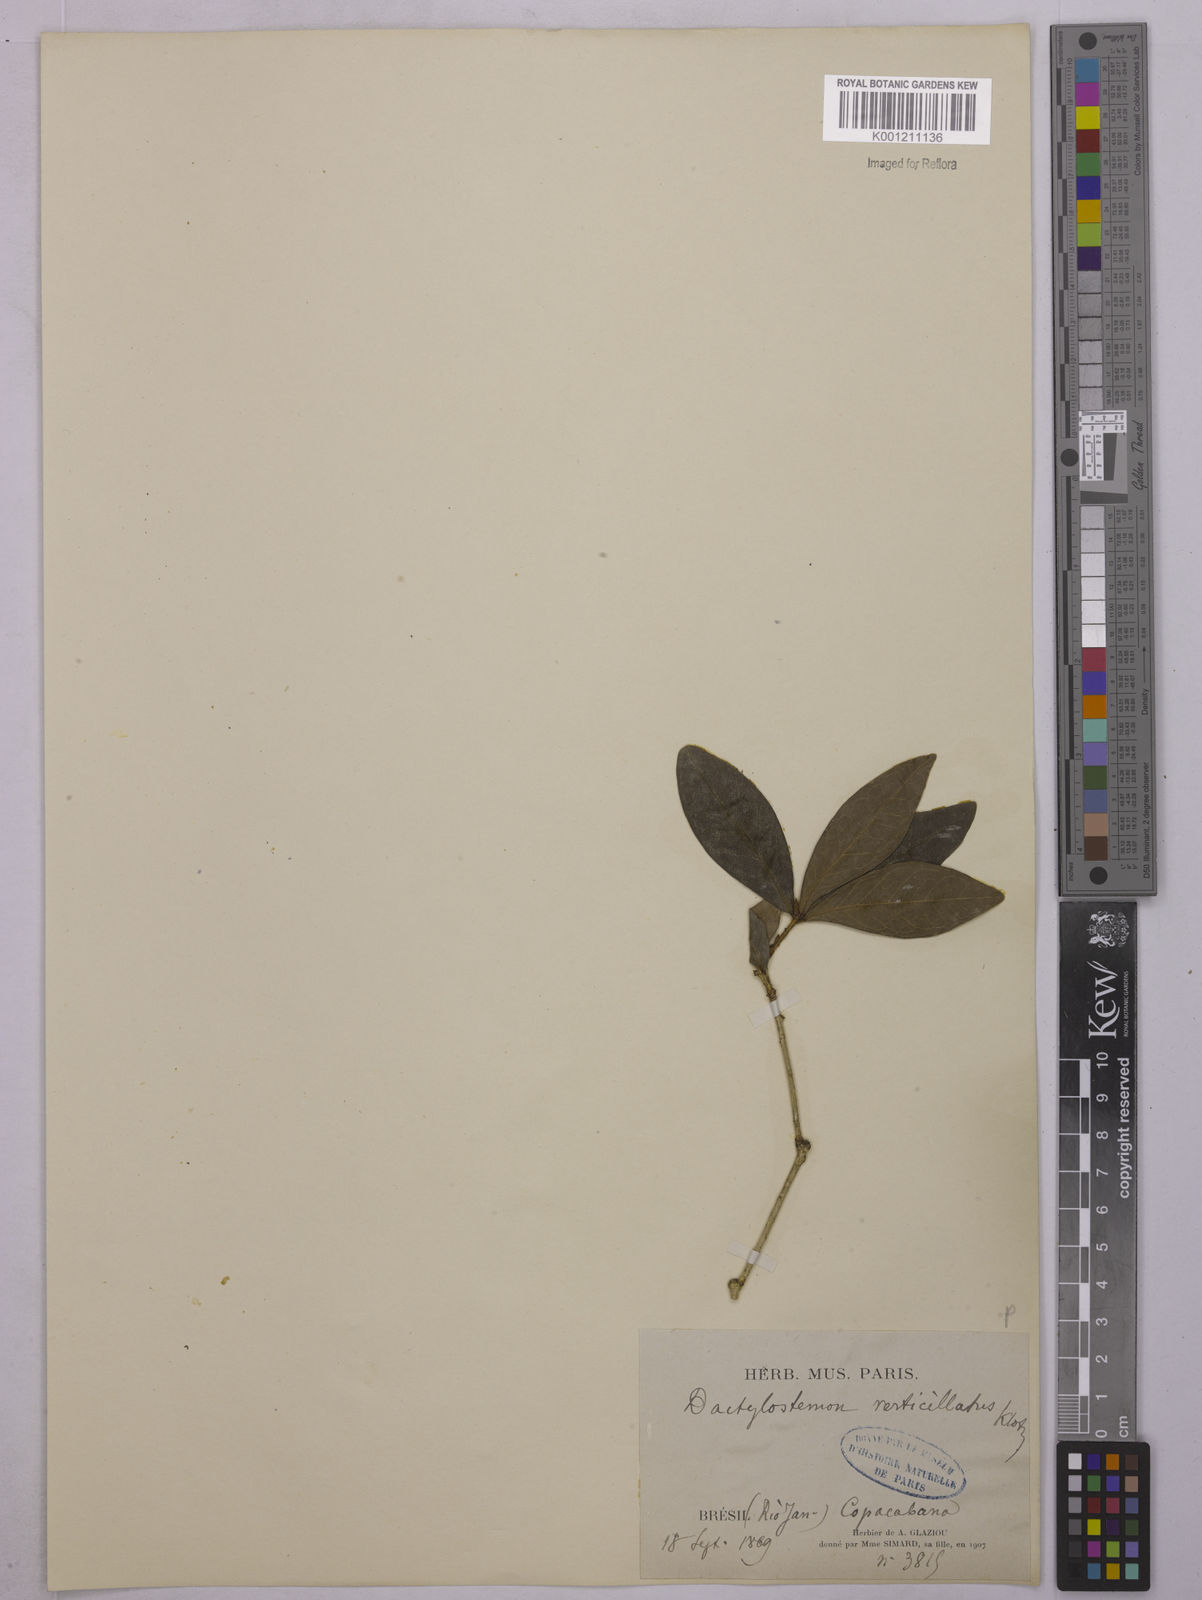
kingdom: Plantae
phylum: Tracheophyta
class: Magnoliopsida
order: Malpighiales
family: Euphorbiaceae
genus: Actinostemon
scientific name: Actinostemon verticillatus
